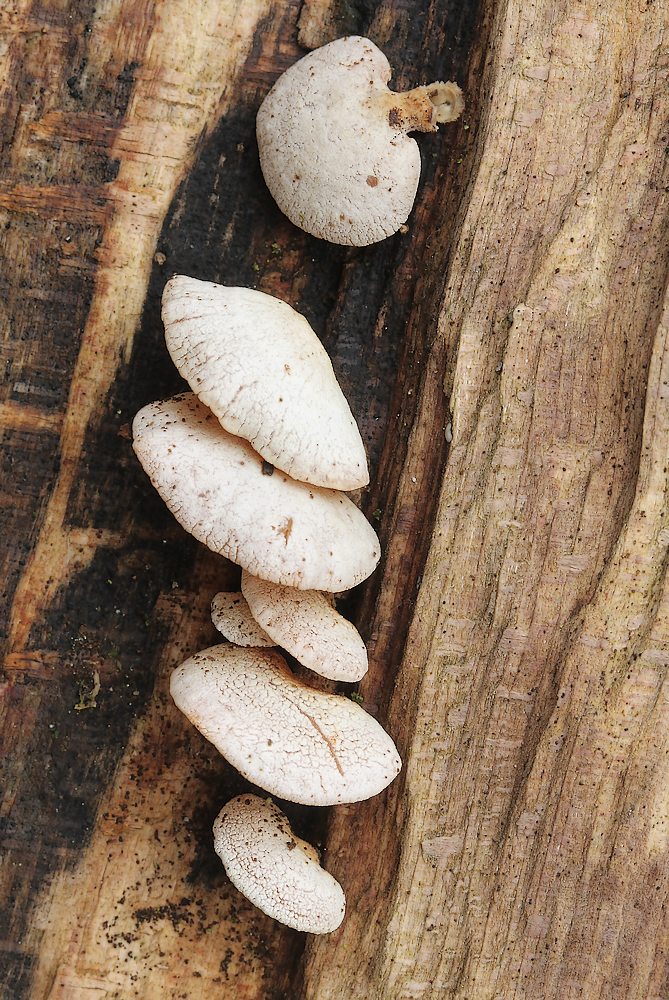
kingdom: Fungi
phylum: Basidiomycota
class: Agaricomycetes
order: Agaricales
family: Mycenaceae
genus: Panellus
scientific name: Panellus stipticus
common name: kliddet epaulethat
